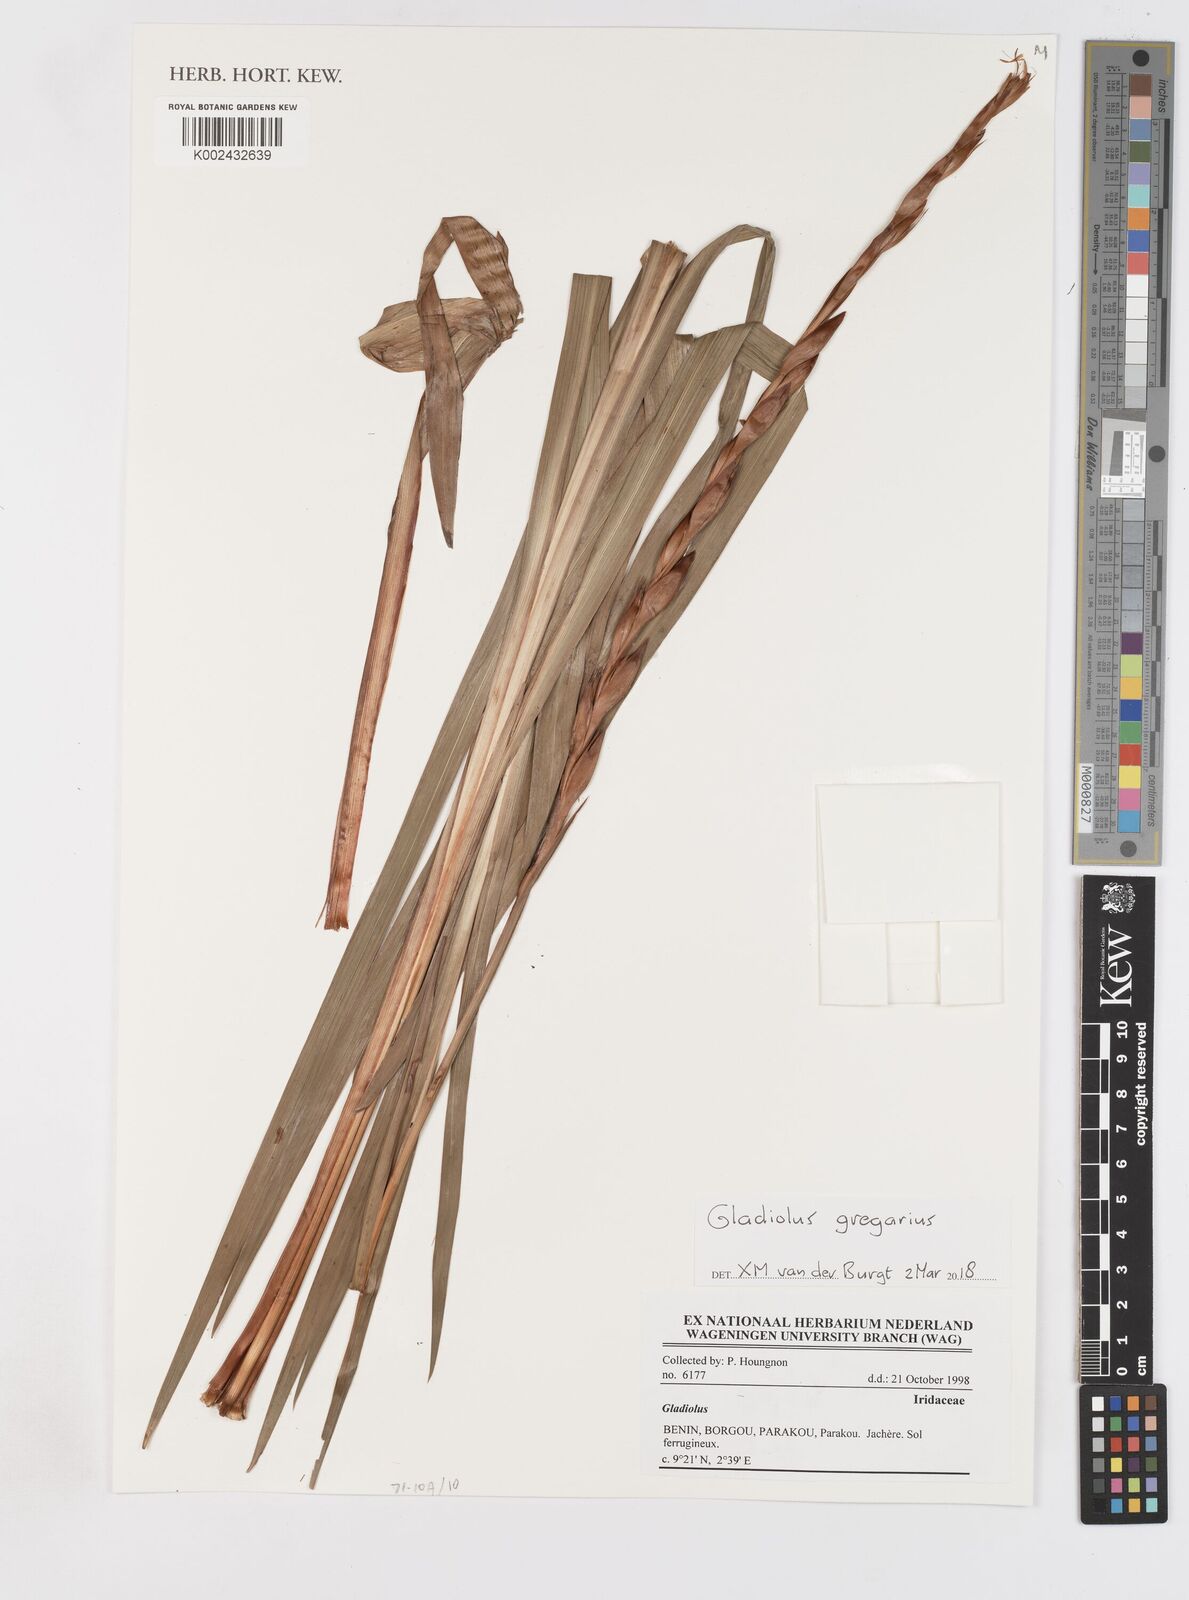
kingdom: Plantae
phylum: Tracheophyta
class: Liliopsida
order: Asparagales
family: Iridaceae
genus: Gladiolus
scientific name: Gladiolus gregarius
